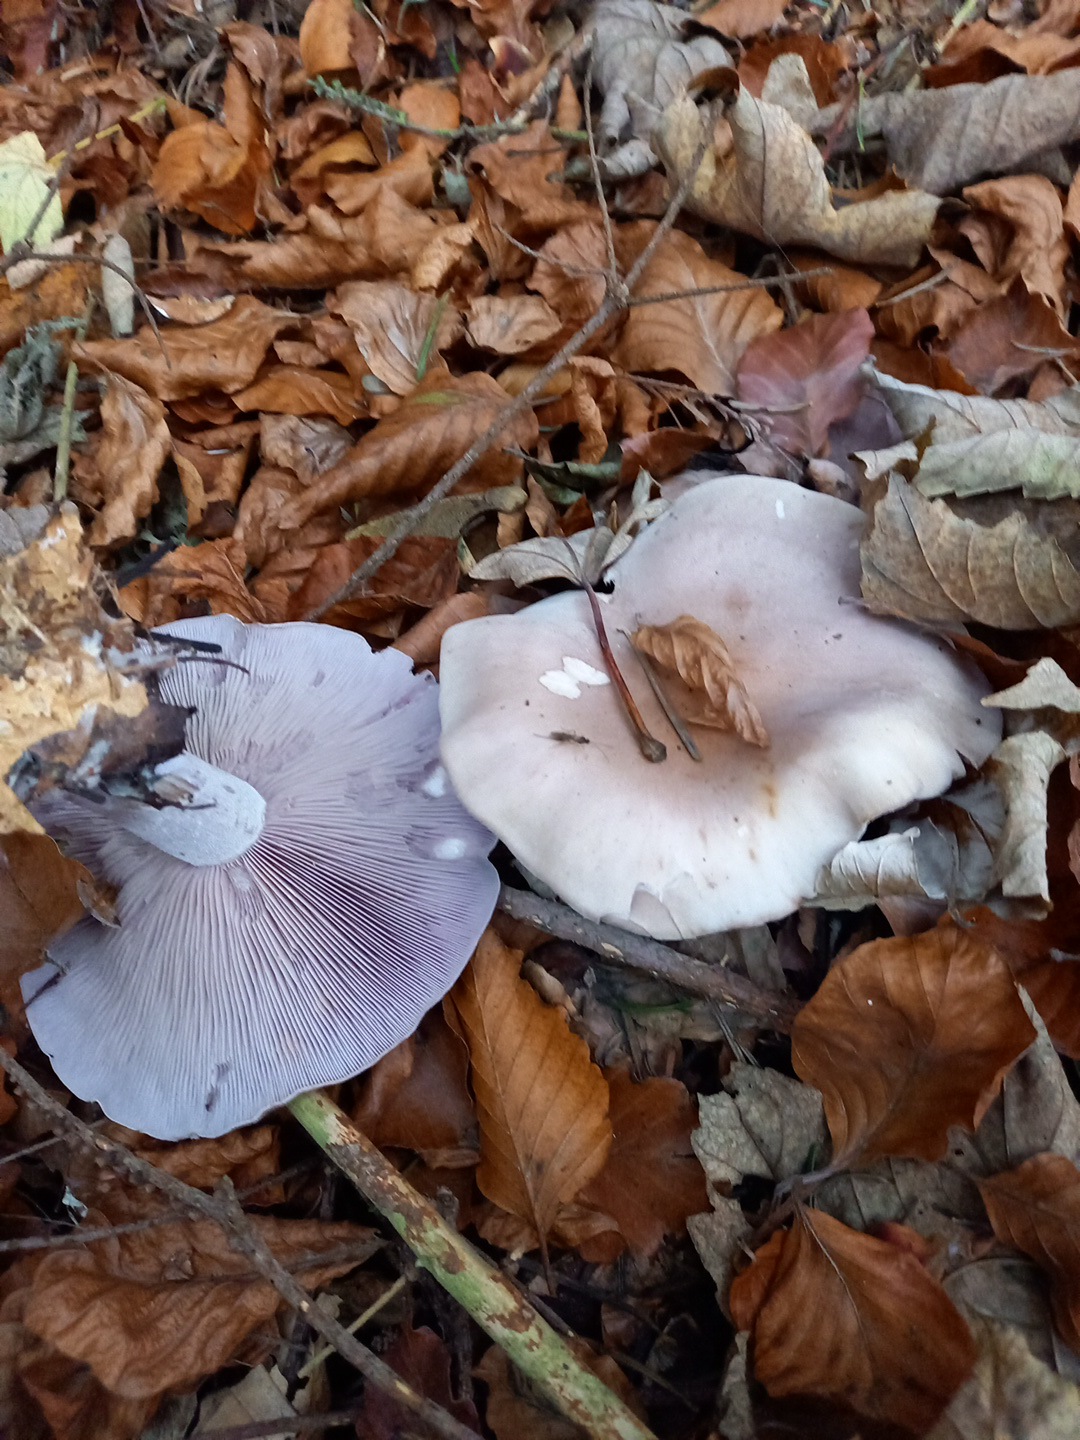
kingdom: Fungi
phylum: Basidiomycota
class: Agaricomycetes
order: Agaricales
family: Tricholomataceae
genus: Lepista
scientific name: Lepista nuda
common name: violet hekseringshat
